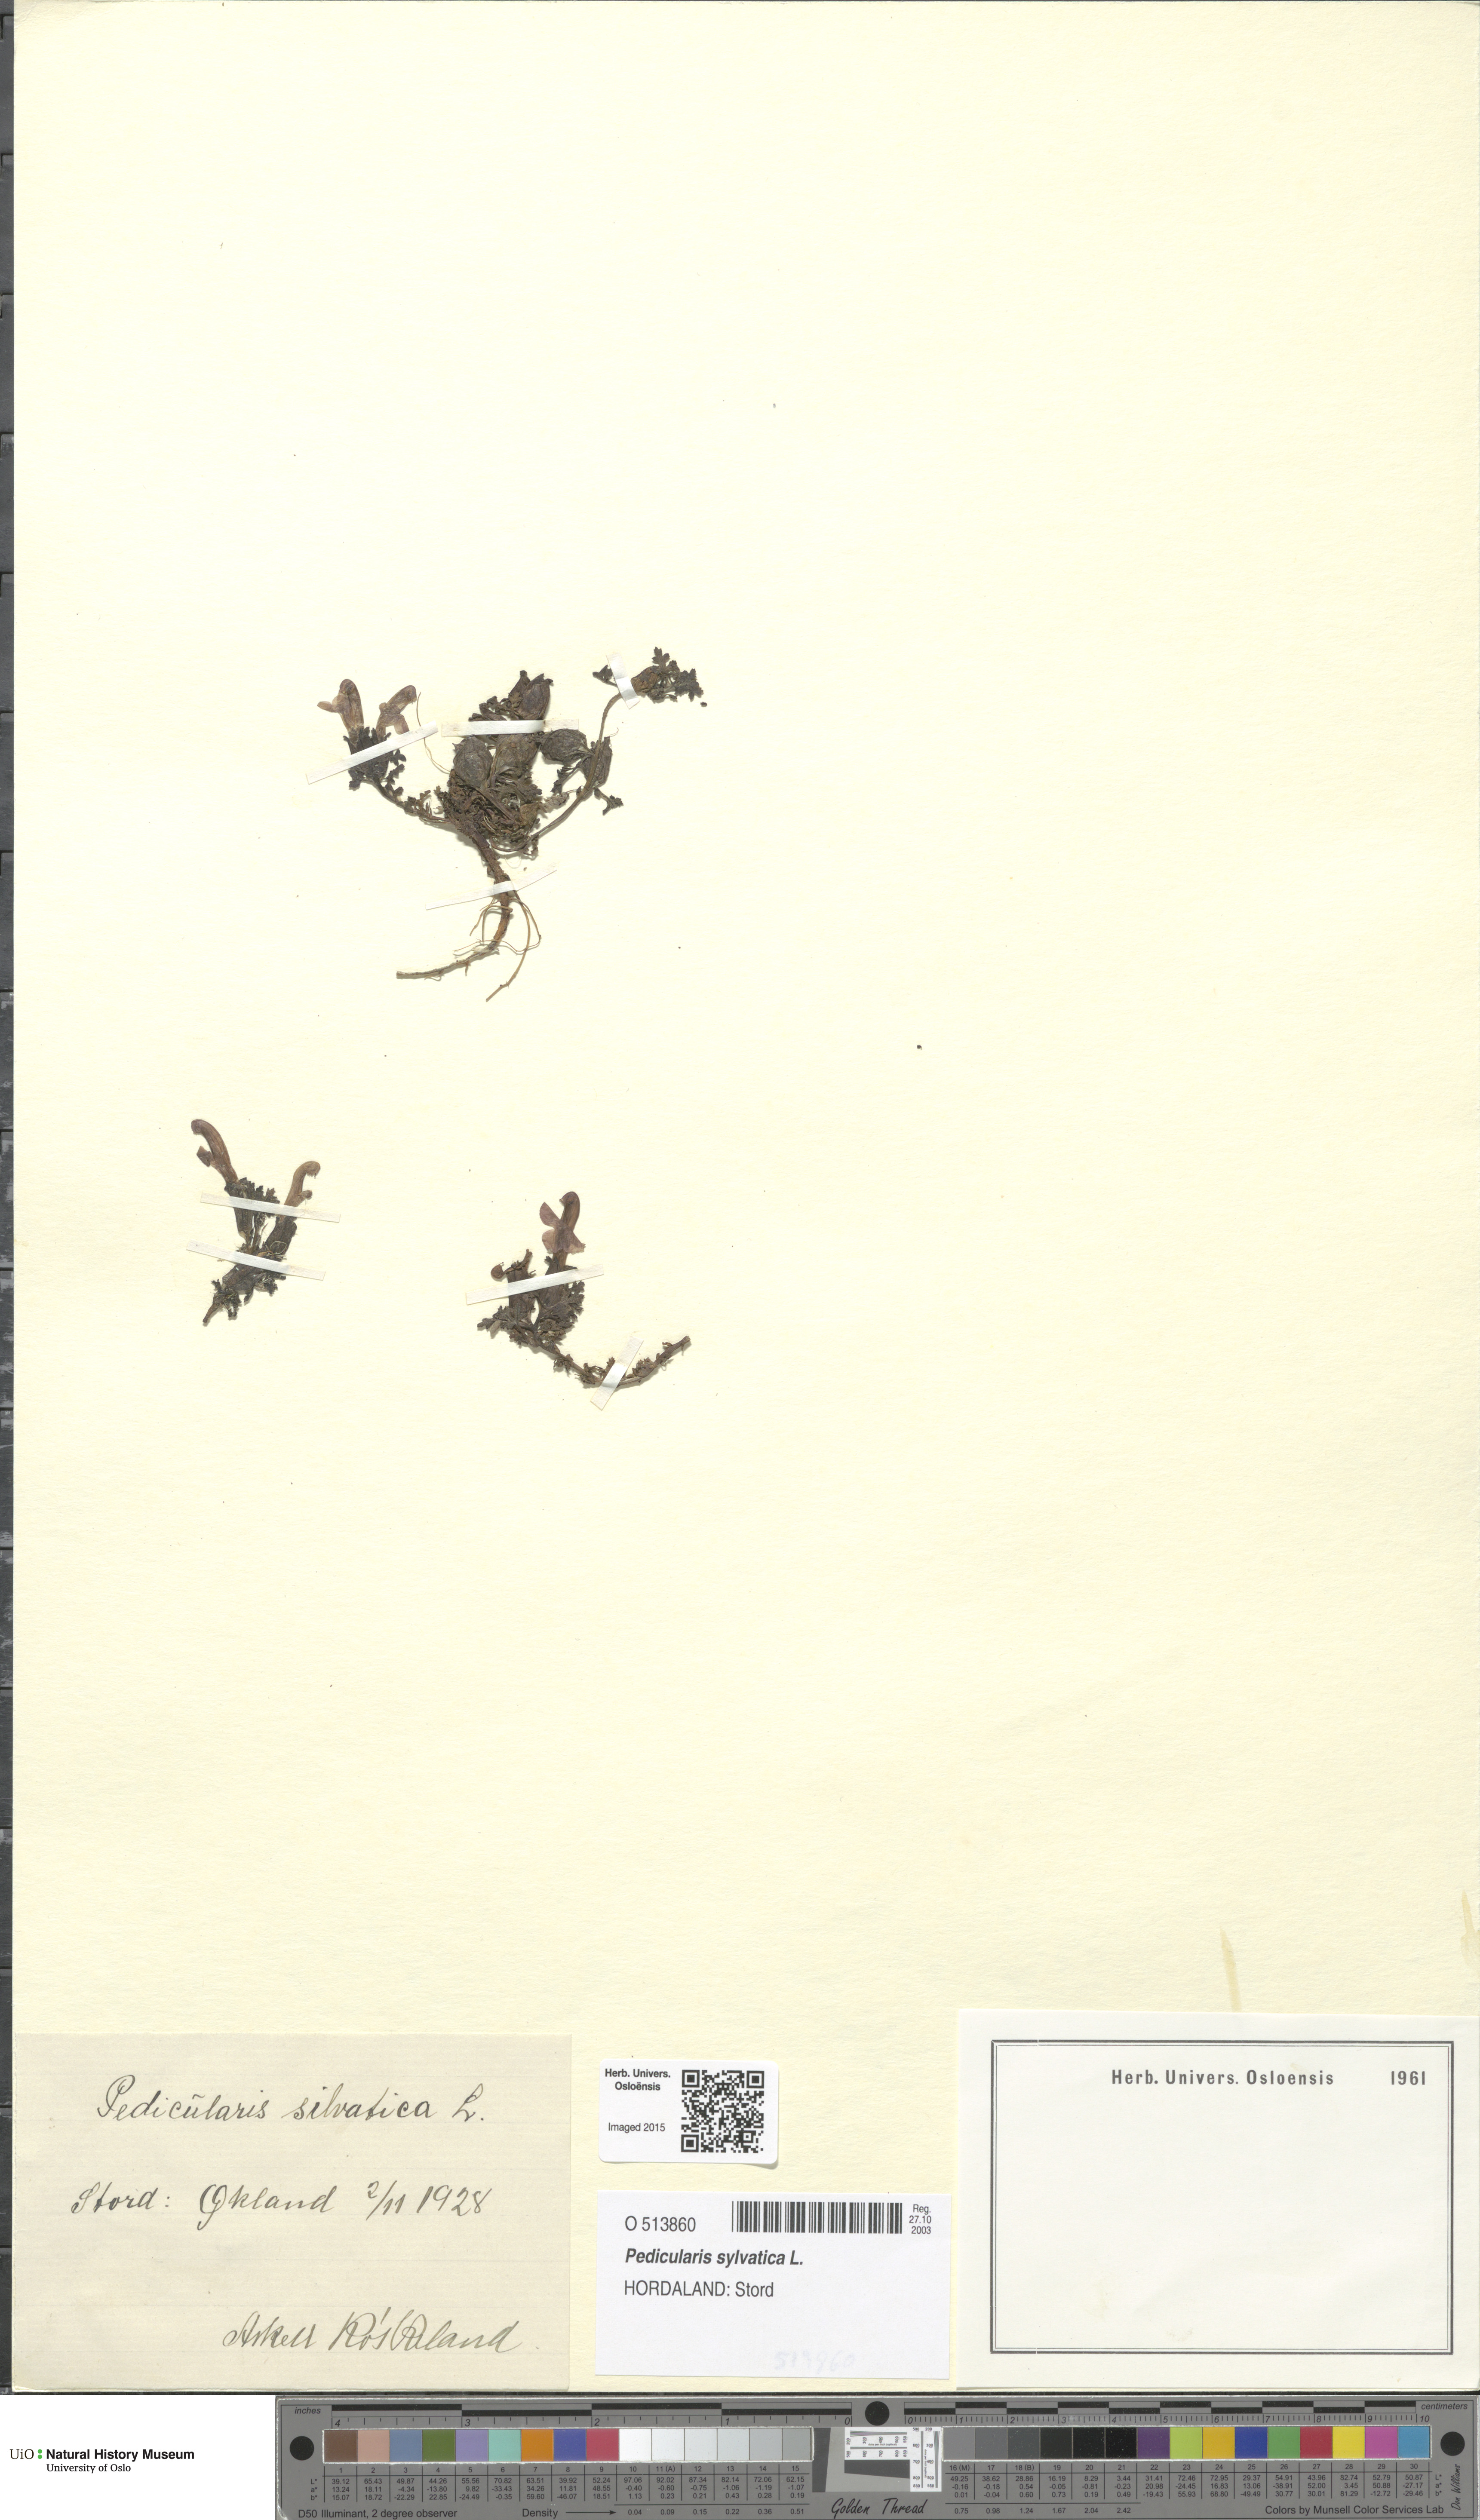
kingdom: Plantae
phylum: Tracheophyta
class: Magnoliopsida
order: Lamiales
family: Orobanchaceae
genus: Pedicularis
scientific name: Pedicularis sylvatica
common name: Lousewort
